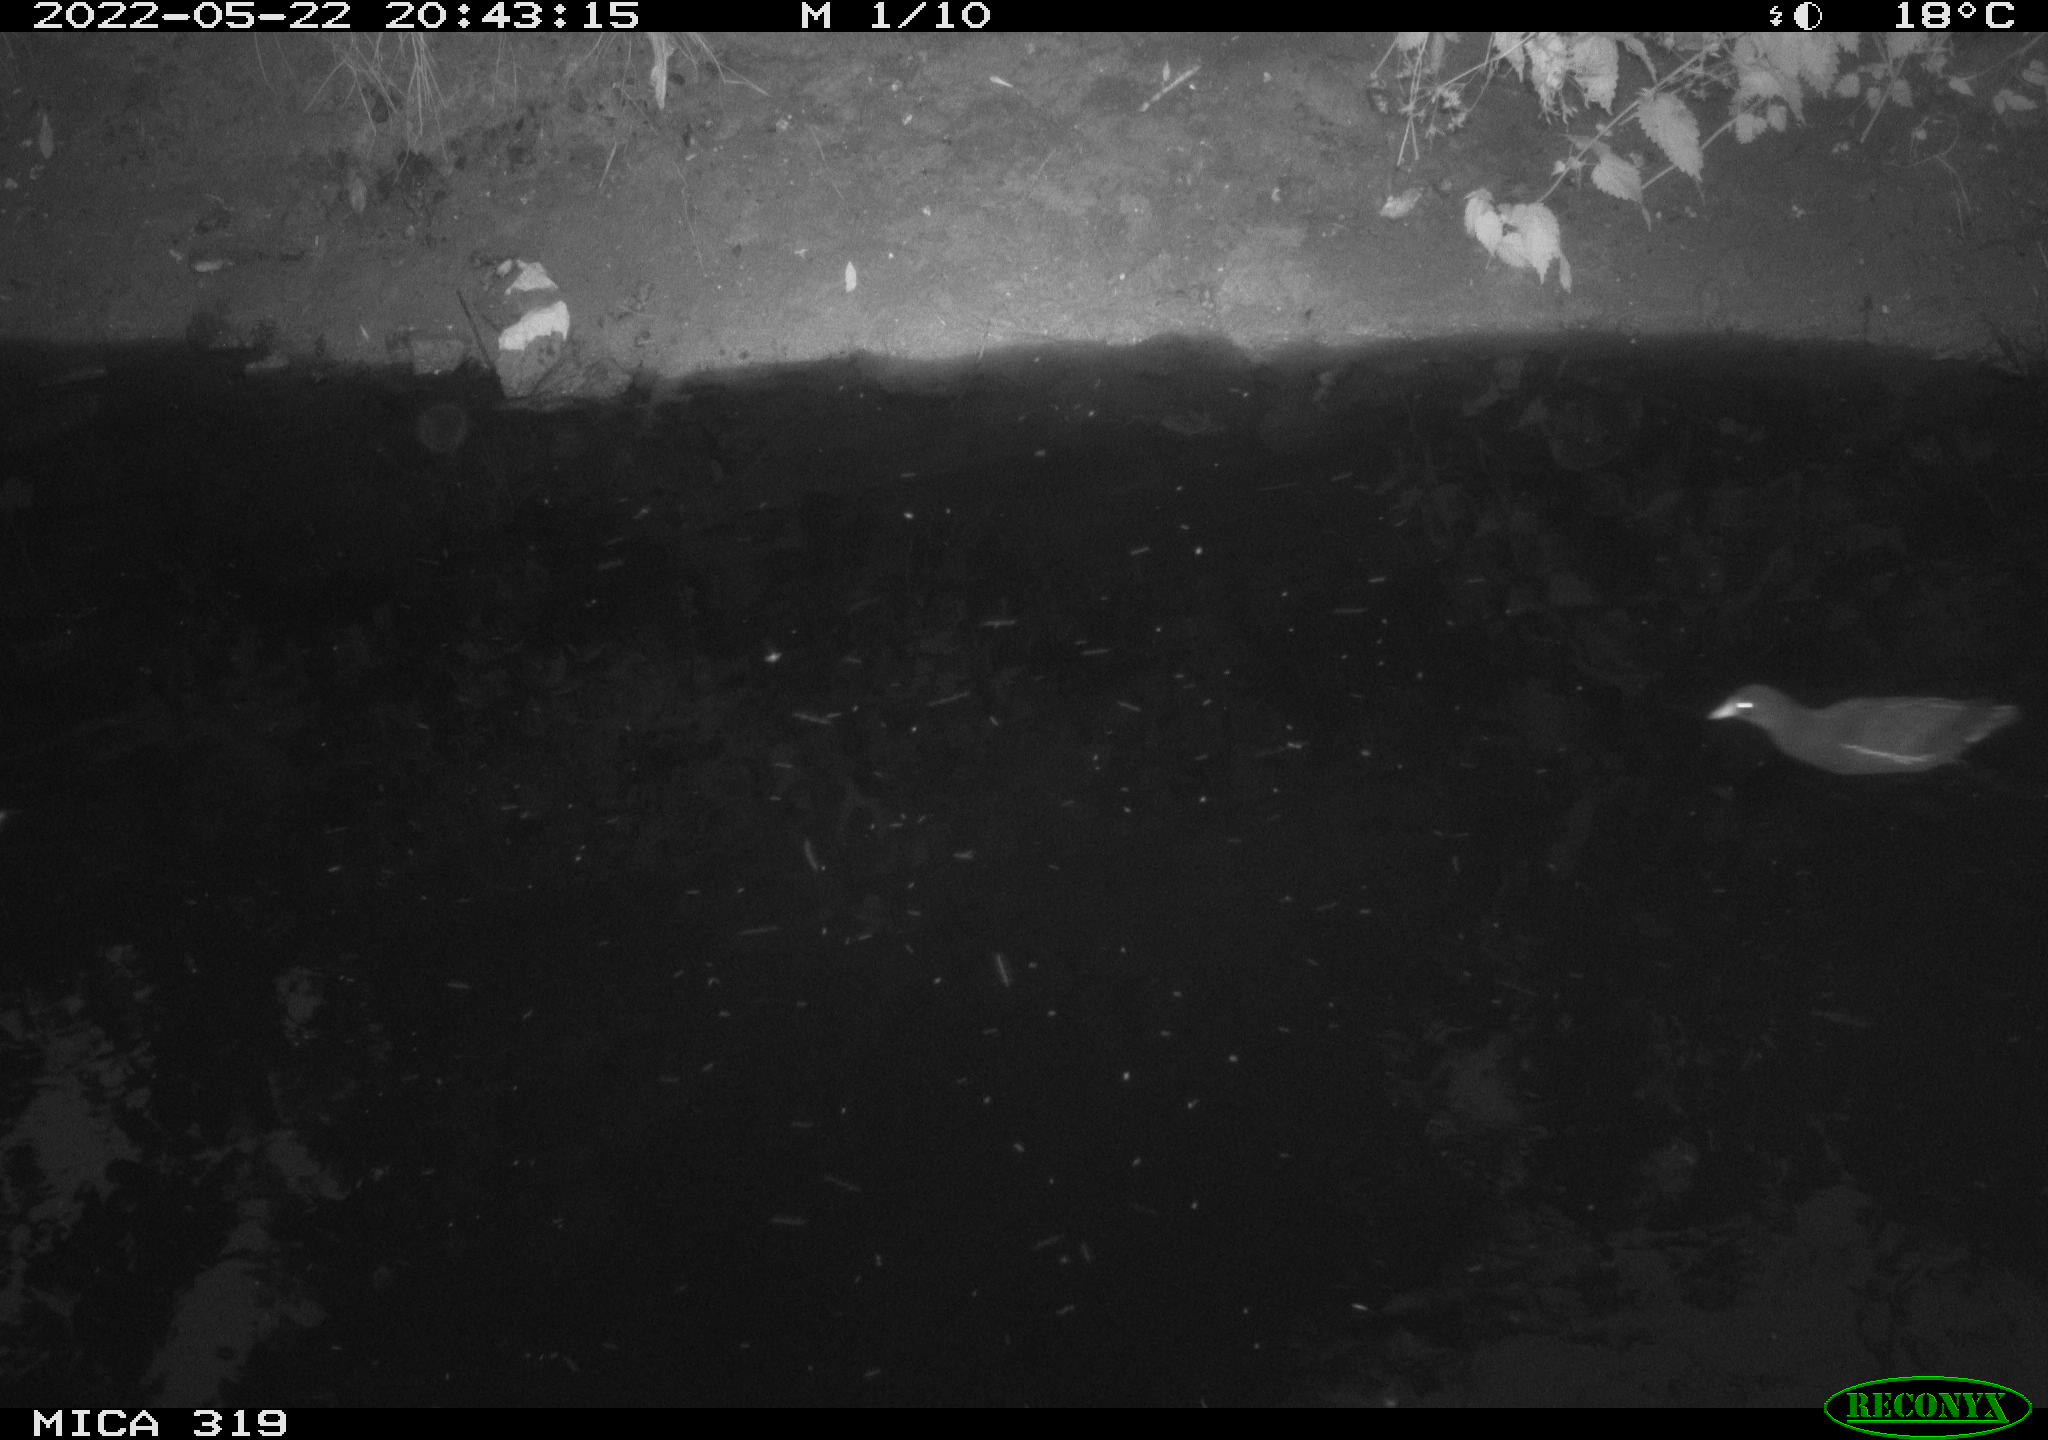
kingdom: Animalia
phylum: Chordata
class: Aves
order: Gruiformes
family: Rallidae
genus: Gallinula
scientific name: Gallinula chloropus
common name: Common moorhen
